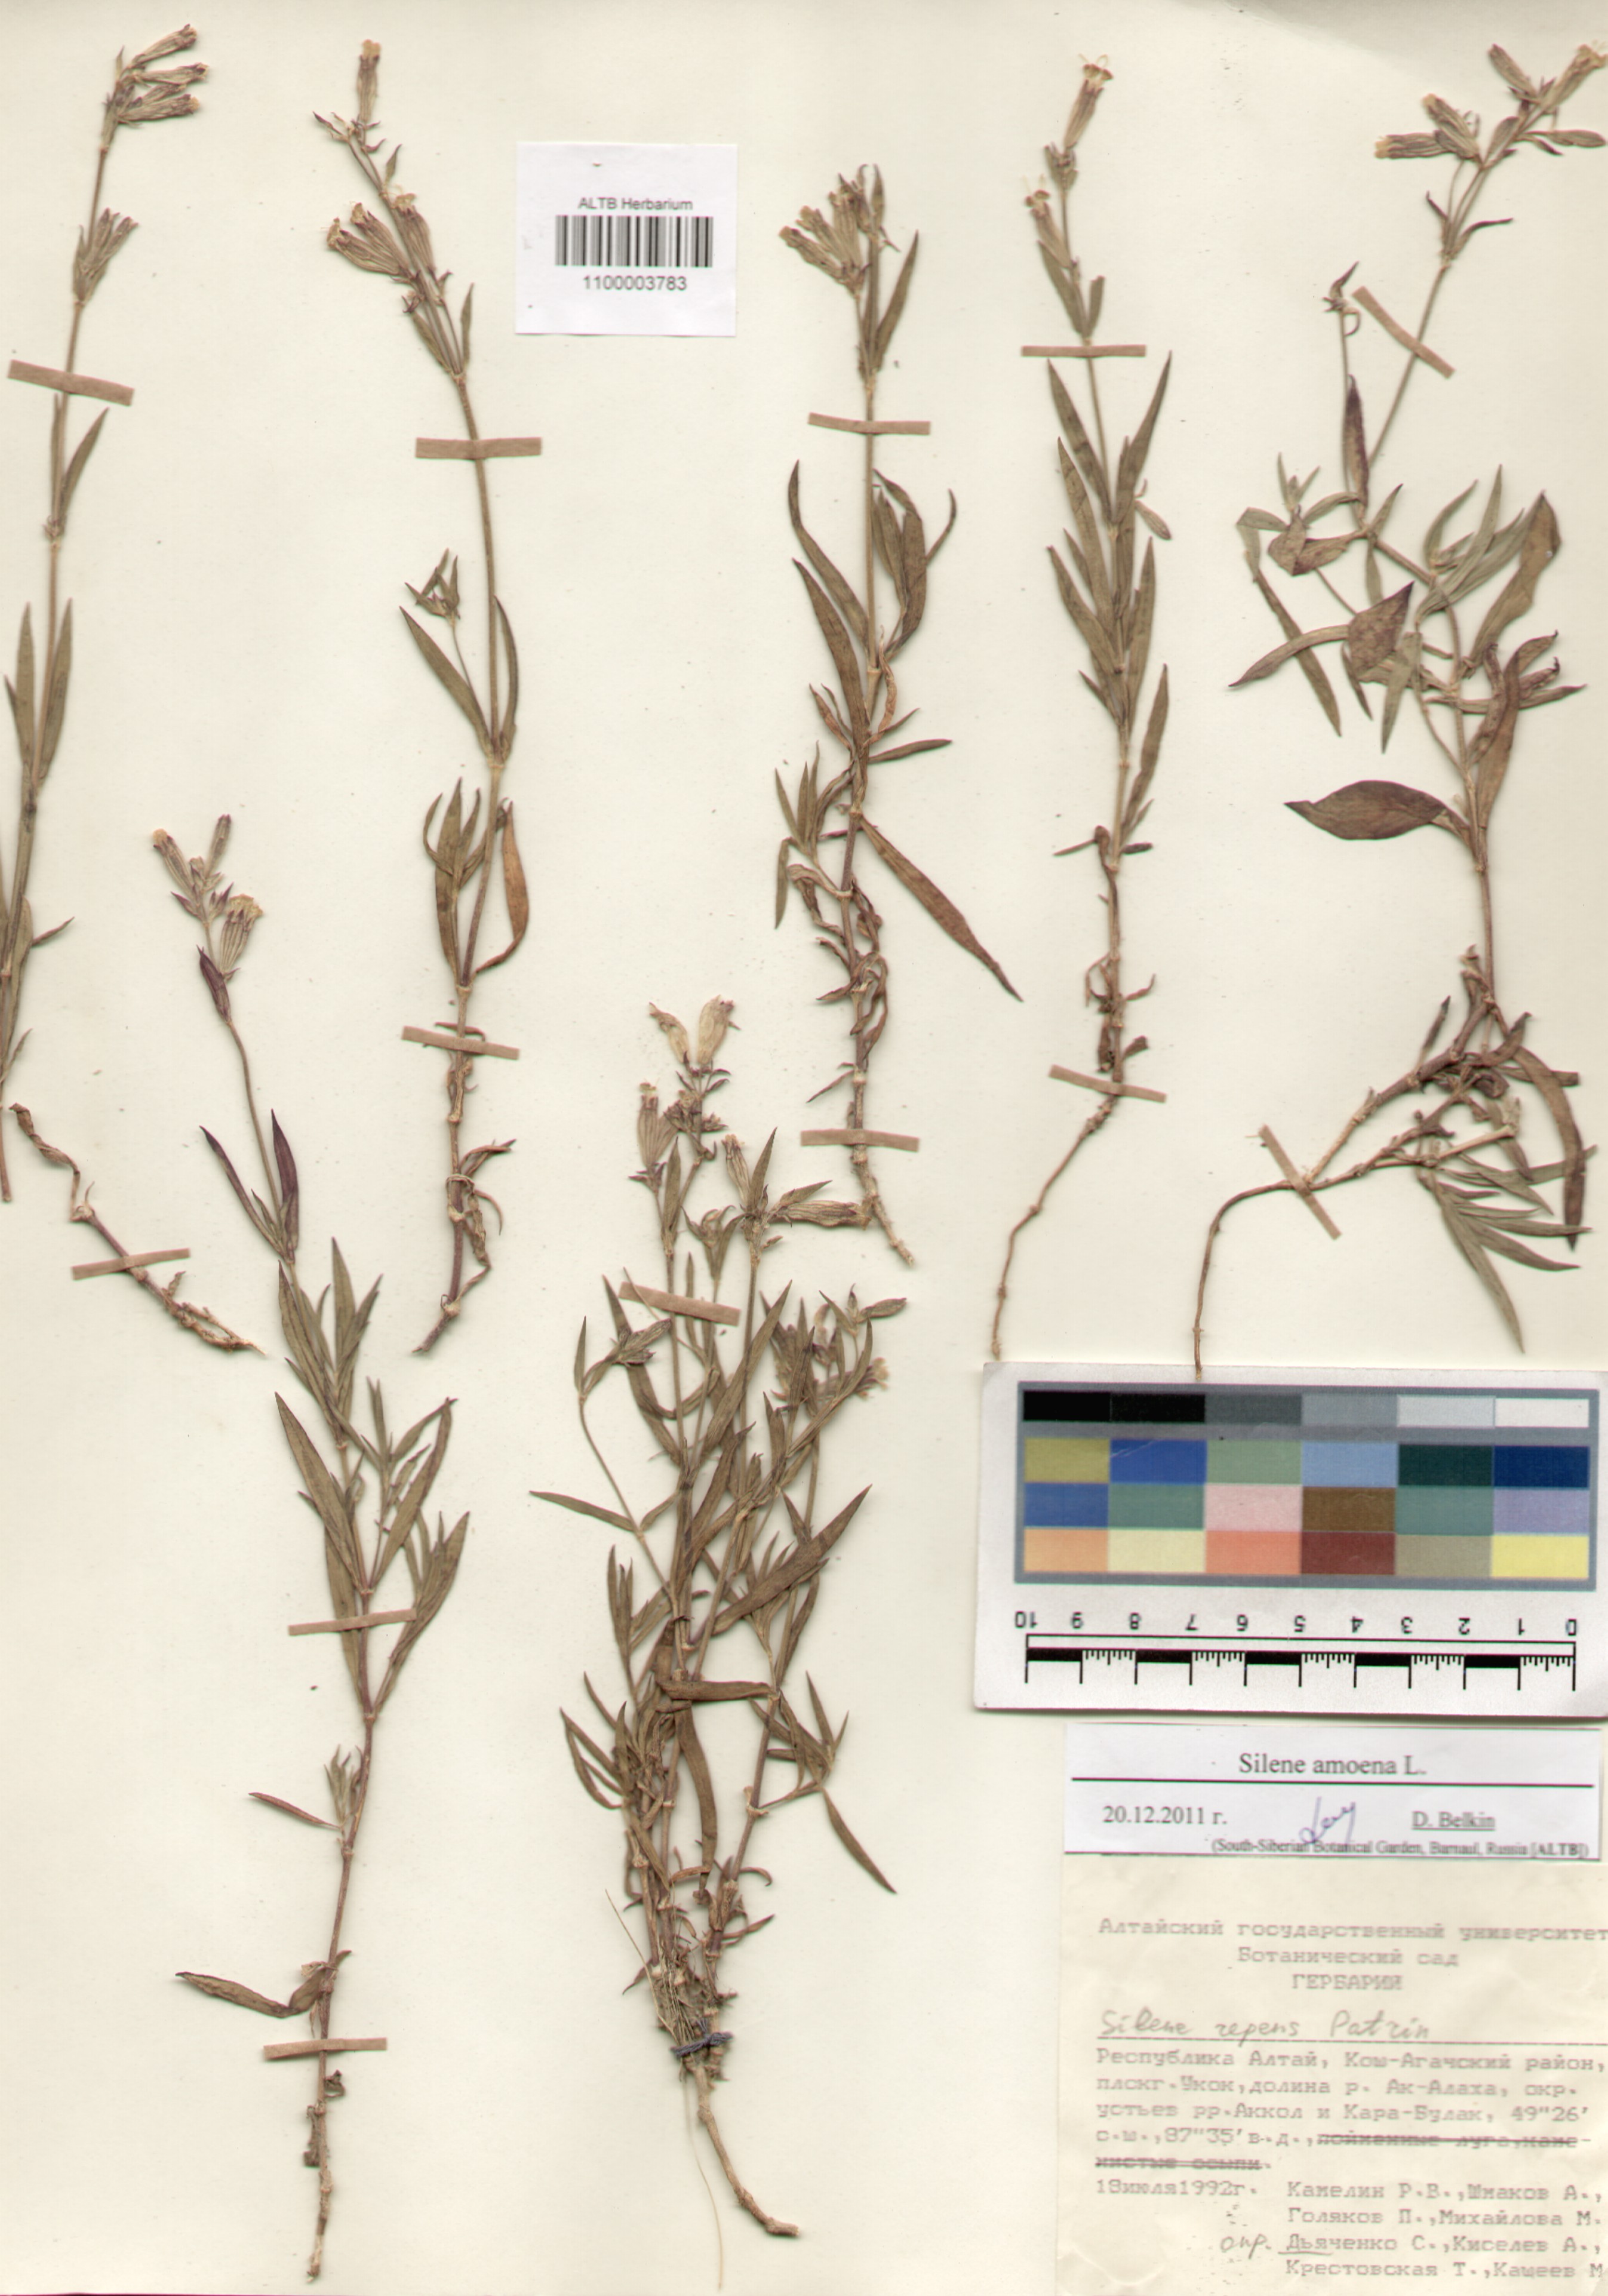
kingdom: Plantae
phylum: Tracheophyta
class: Magnoliopsida
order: Caryophyllales
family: Caryophyllaceae
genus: Silene
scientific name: Silene amoena
